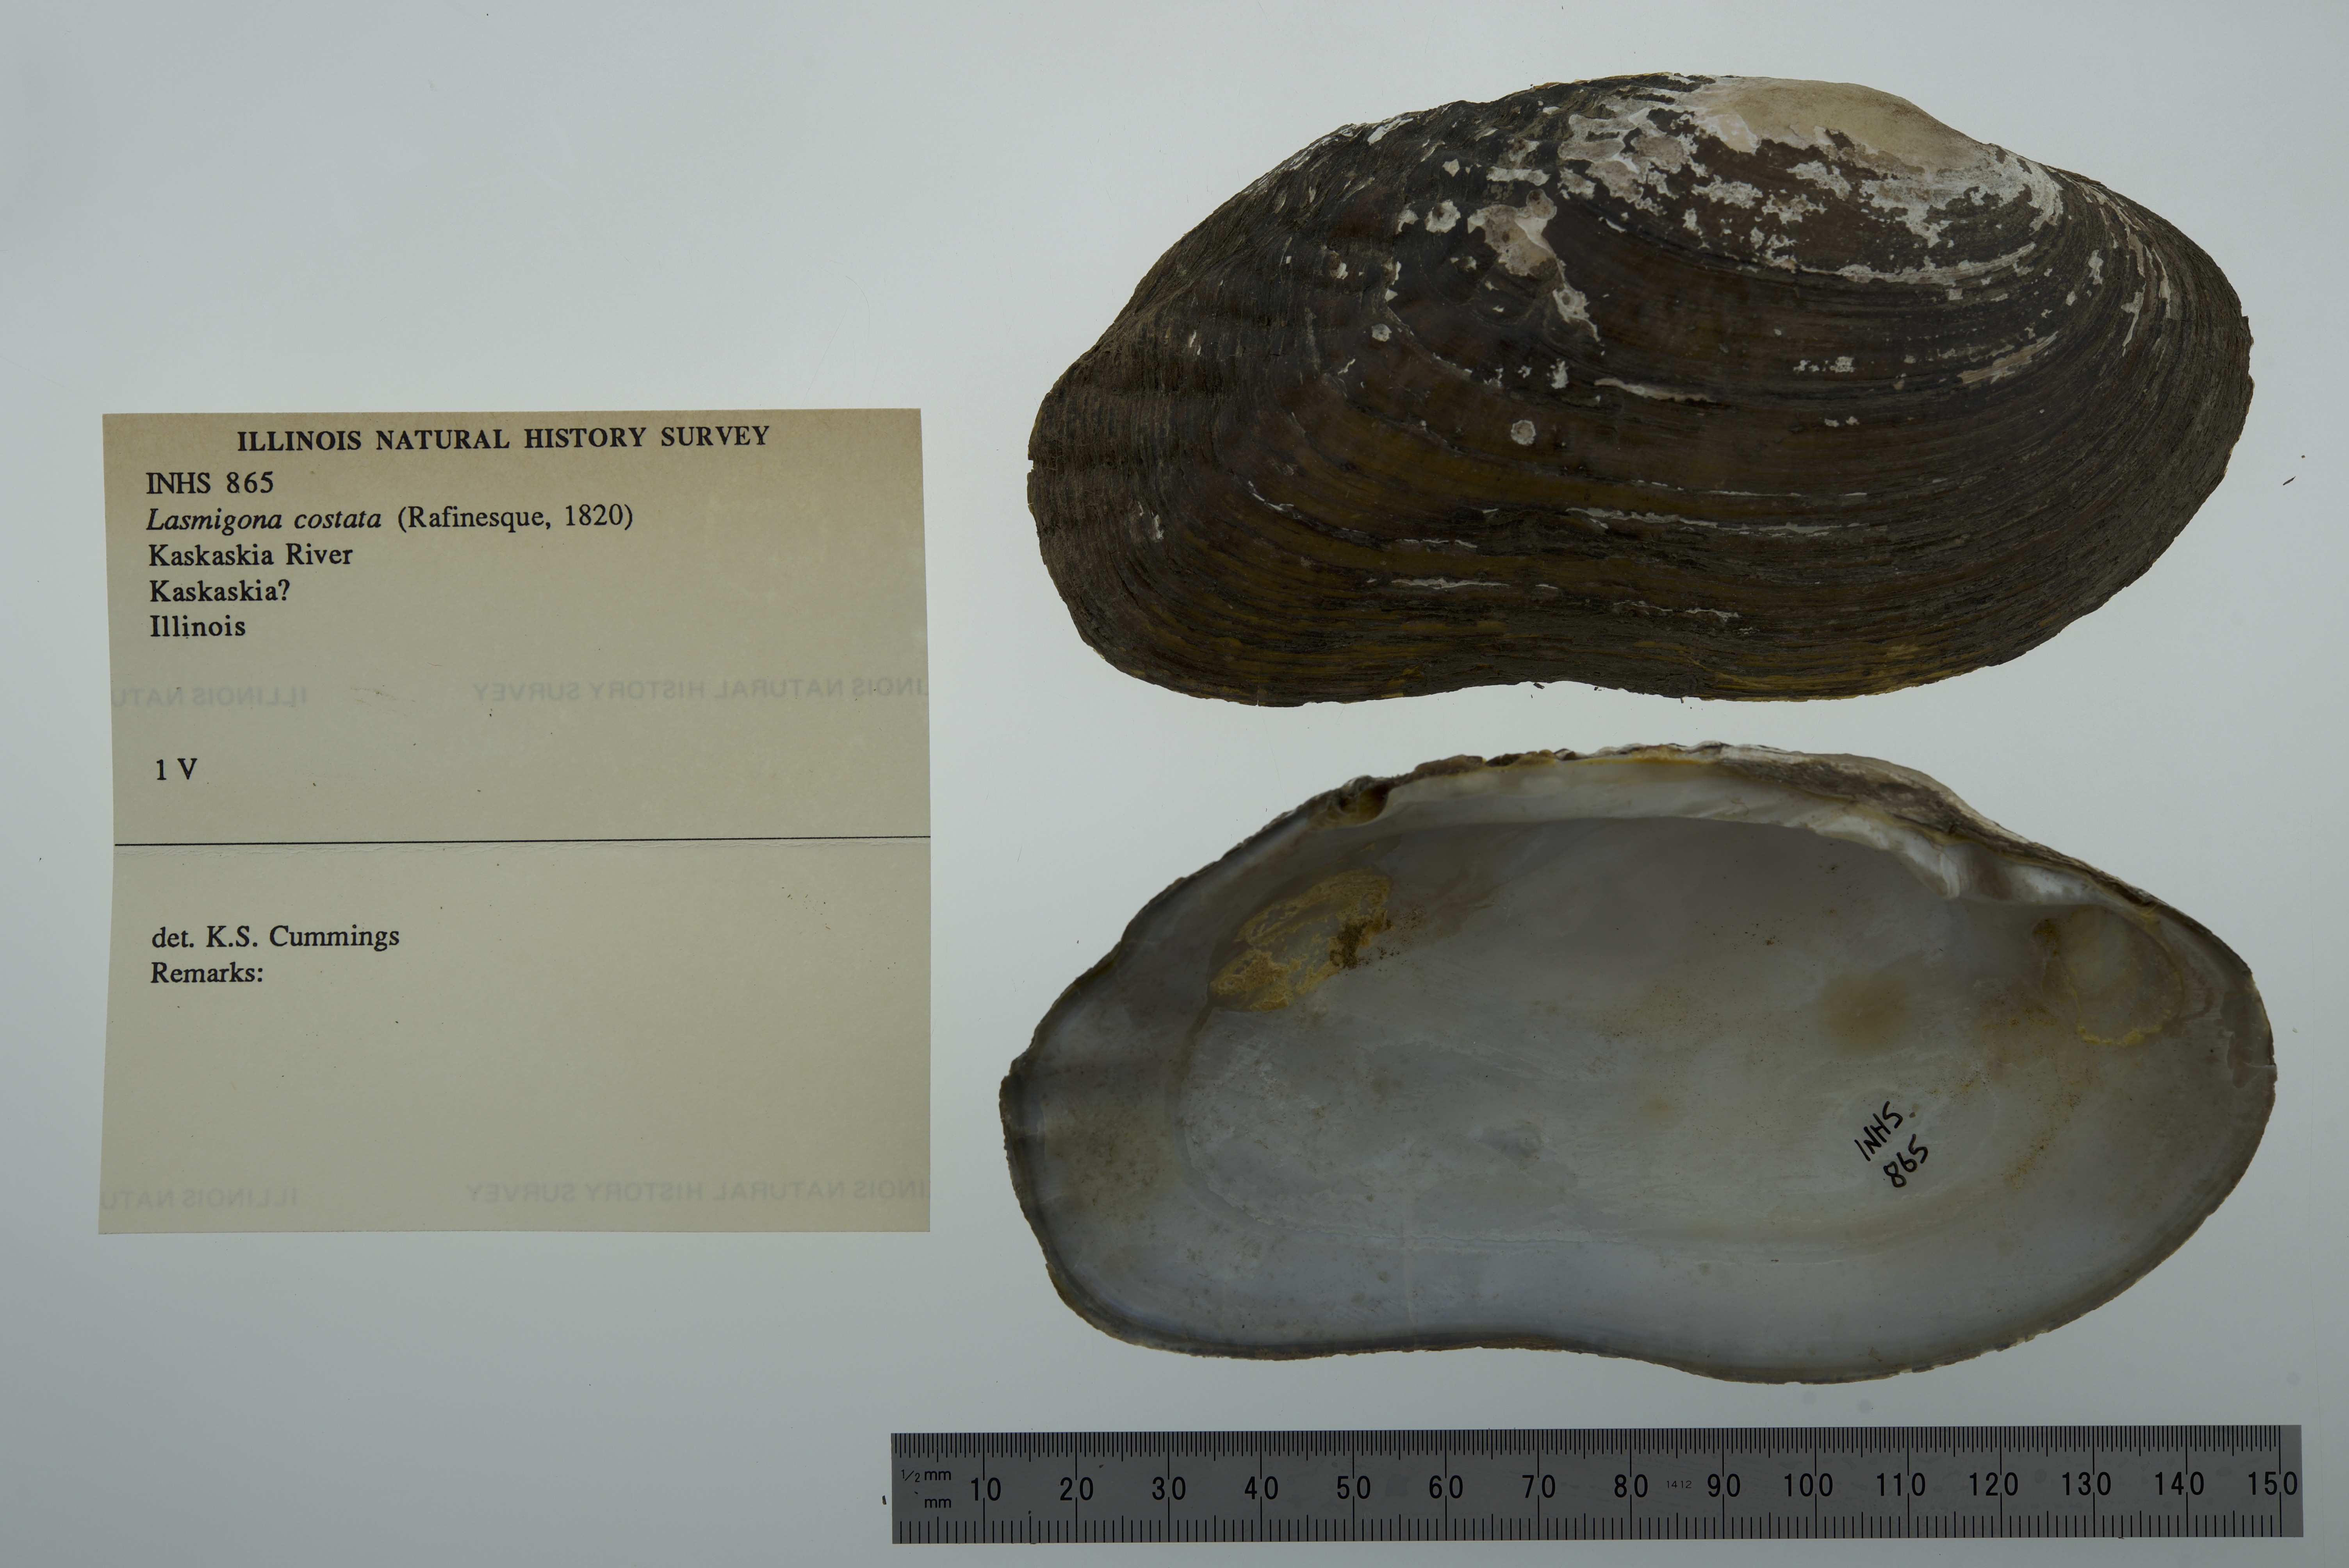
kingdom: Animalia
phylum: Mollusca
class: Bivalvia
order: Unionida
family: Unionidae
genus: Lasmigona
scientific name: Lasmigona costata
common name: Flutedshell
